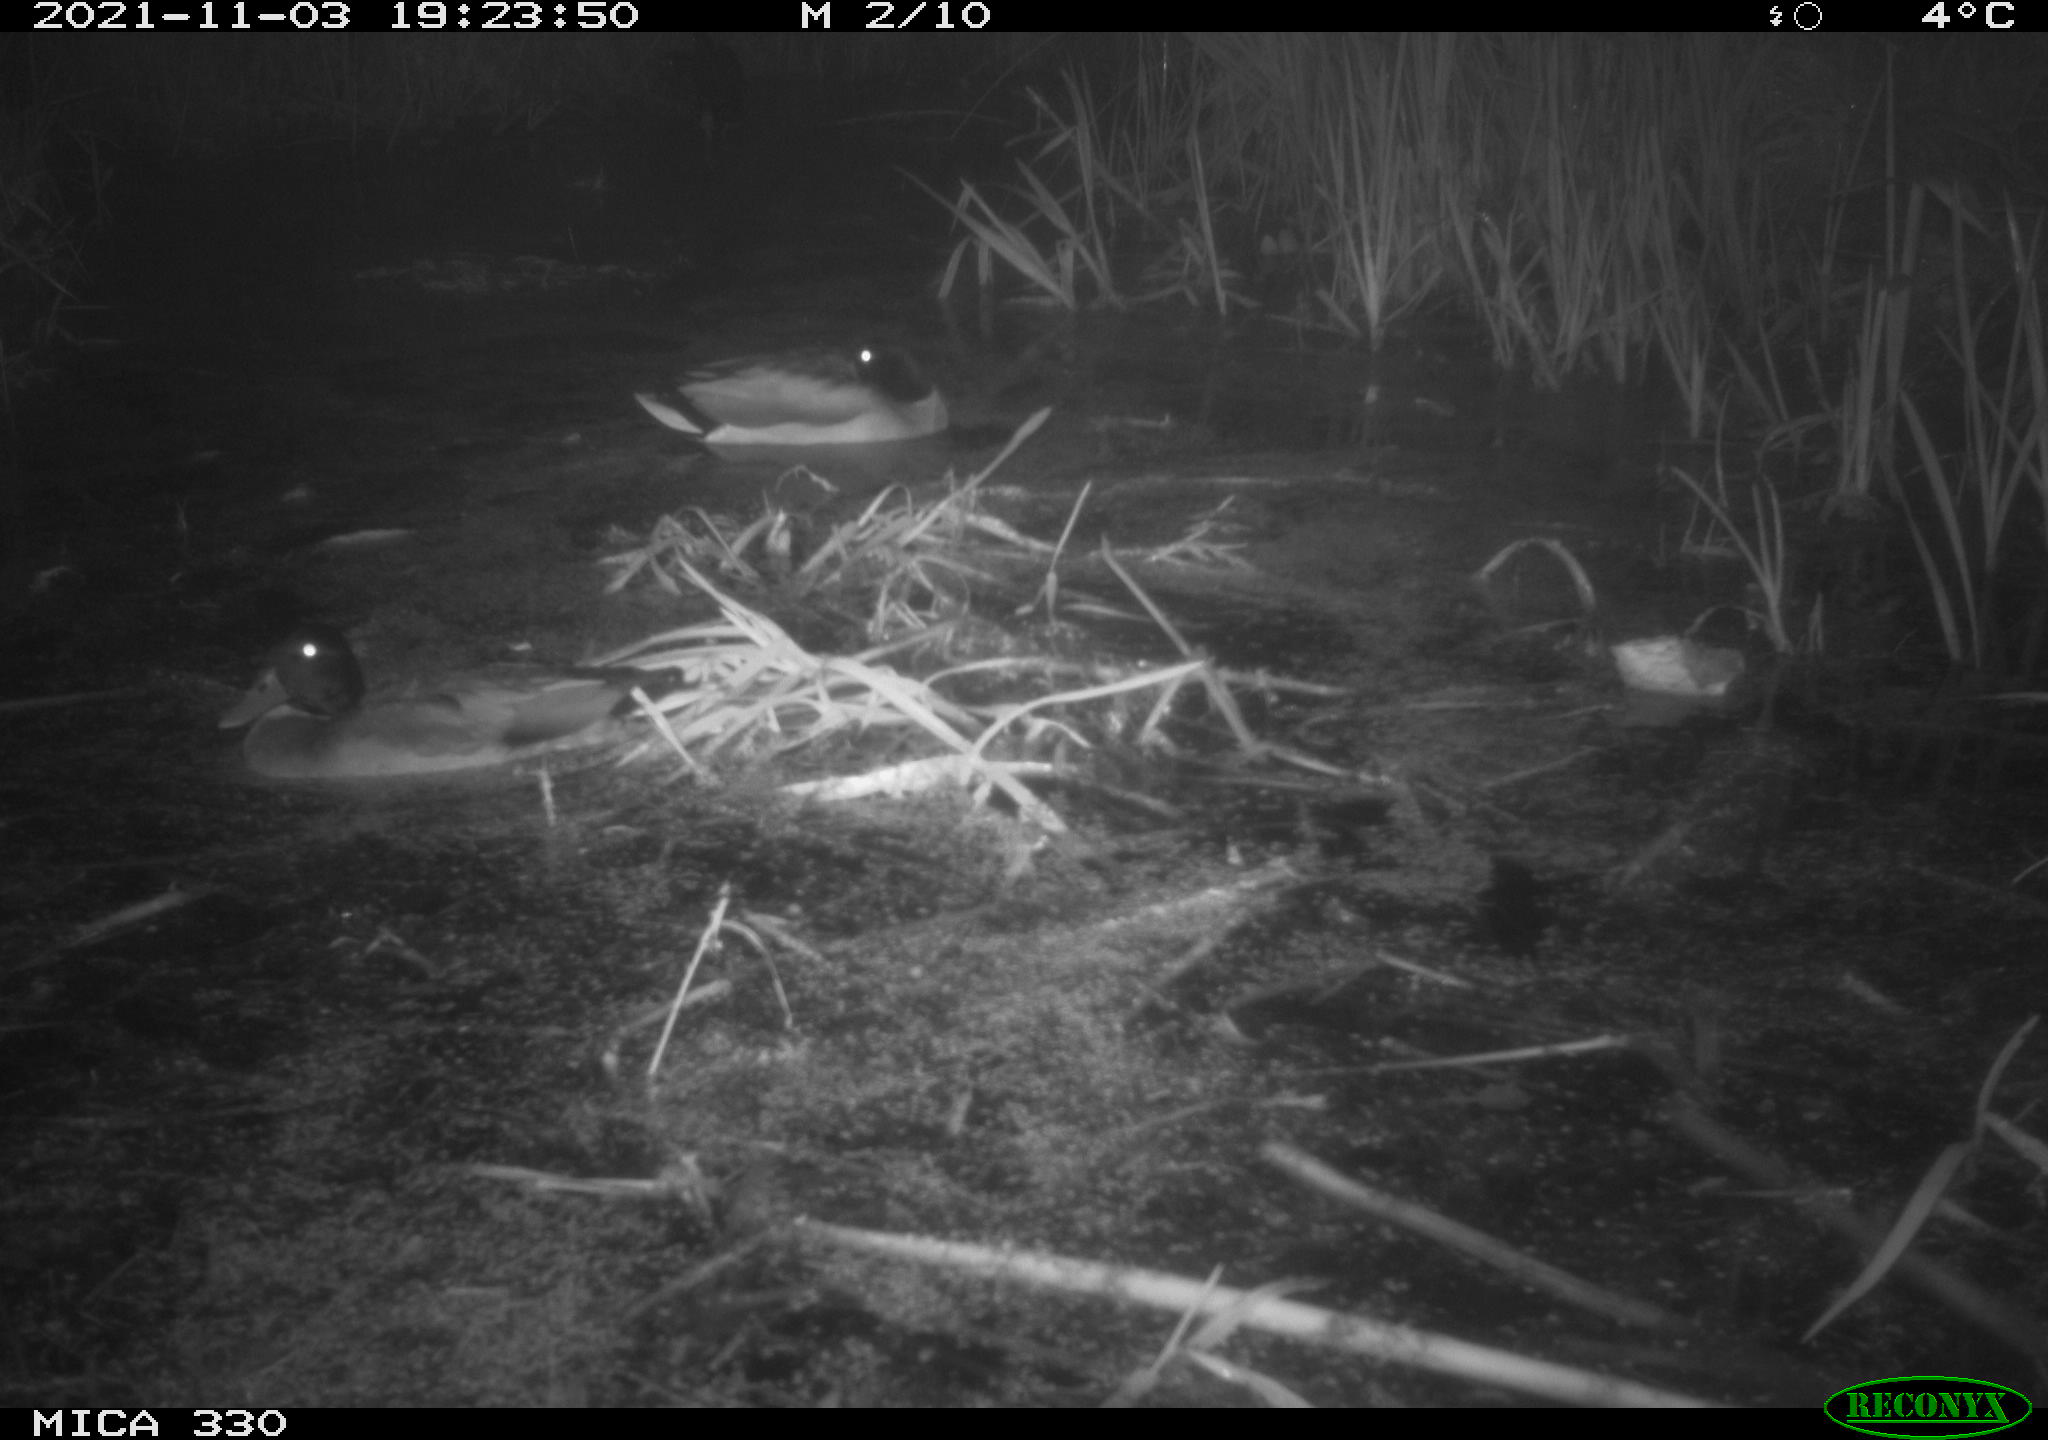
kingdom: Animalia
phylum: Chordata
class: Aves
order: Anseriformes
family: Anatidae
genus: Anas
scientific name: Anas platyrhynchos
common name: Mallard
